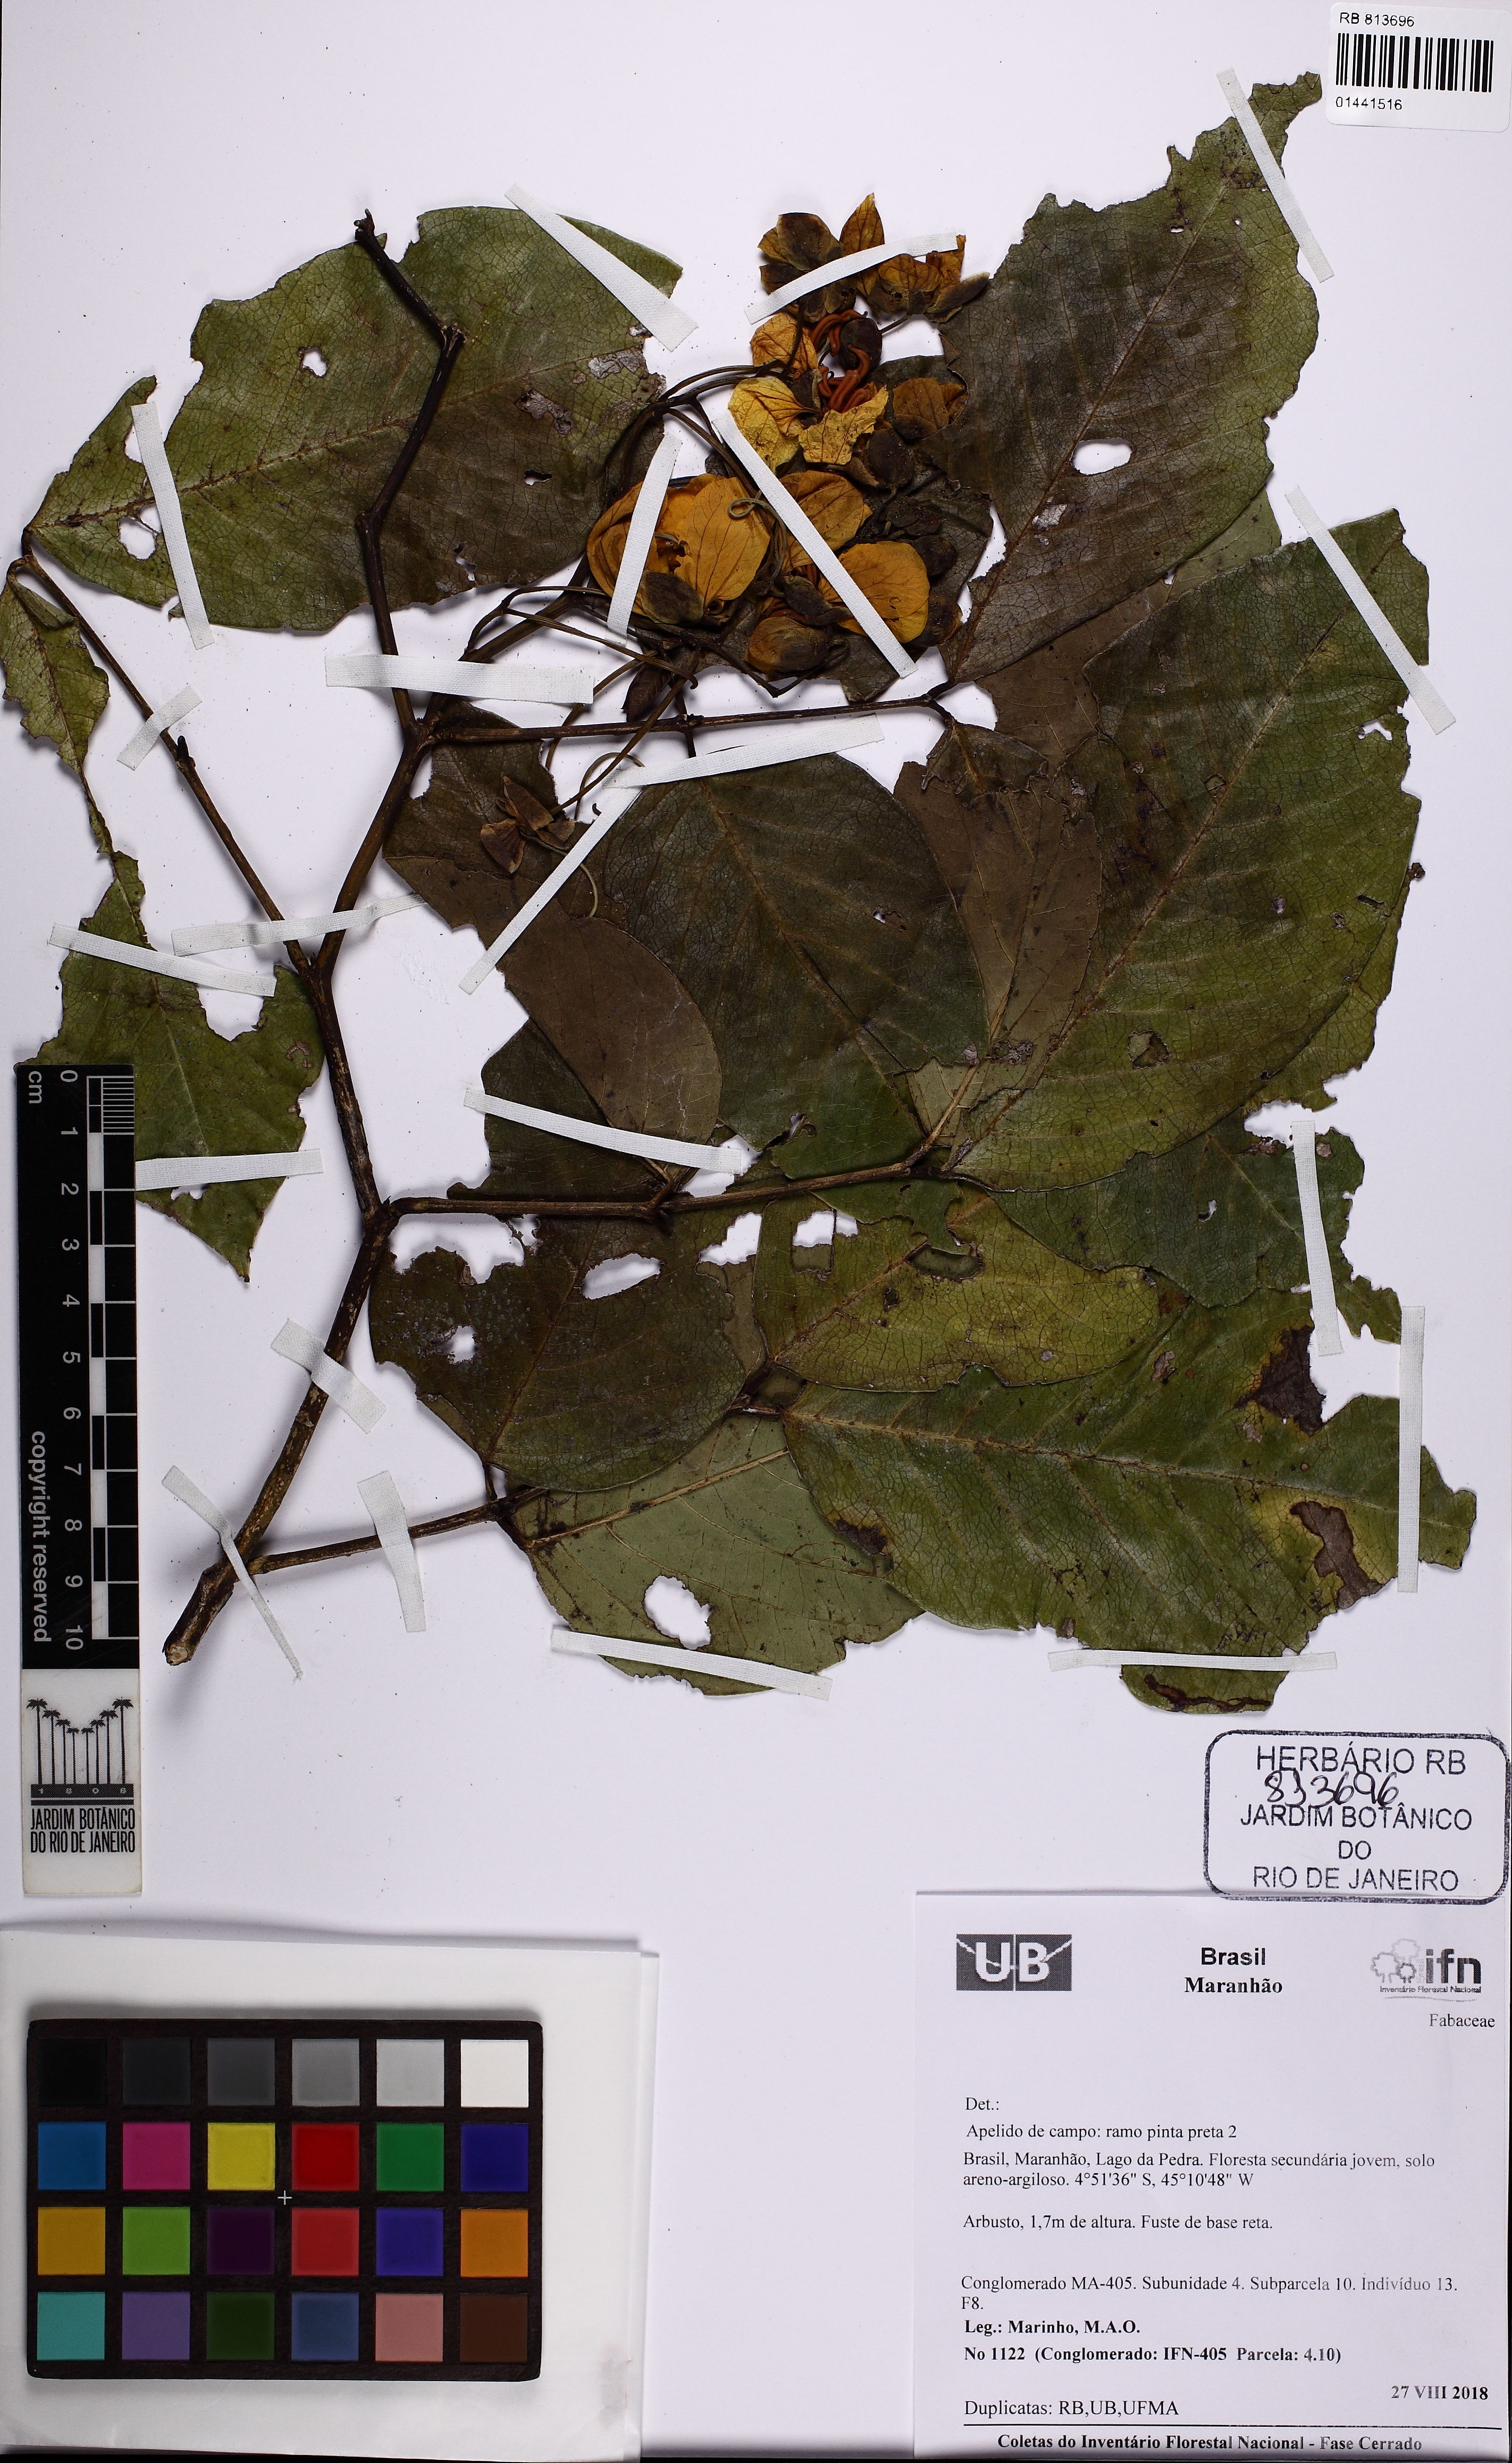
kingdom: Plantae
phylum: Tracheophyta
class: Magnoliopsida
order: Fabales
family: Fabaceae
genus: Senna
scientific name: Senna georgica
